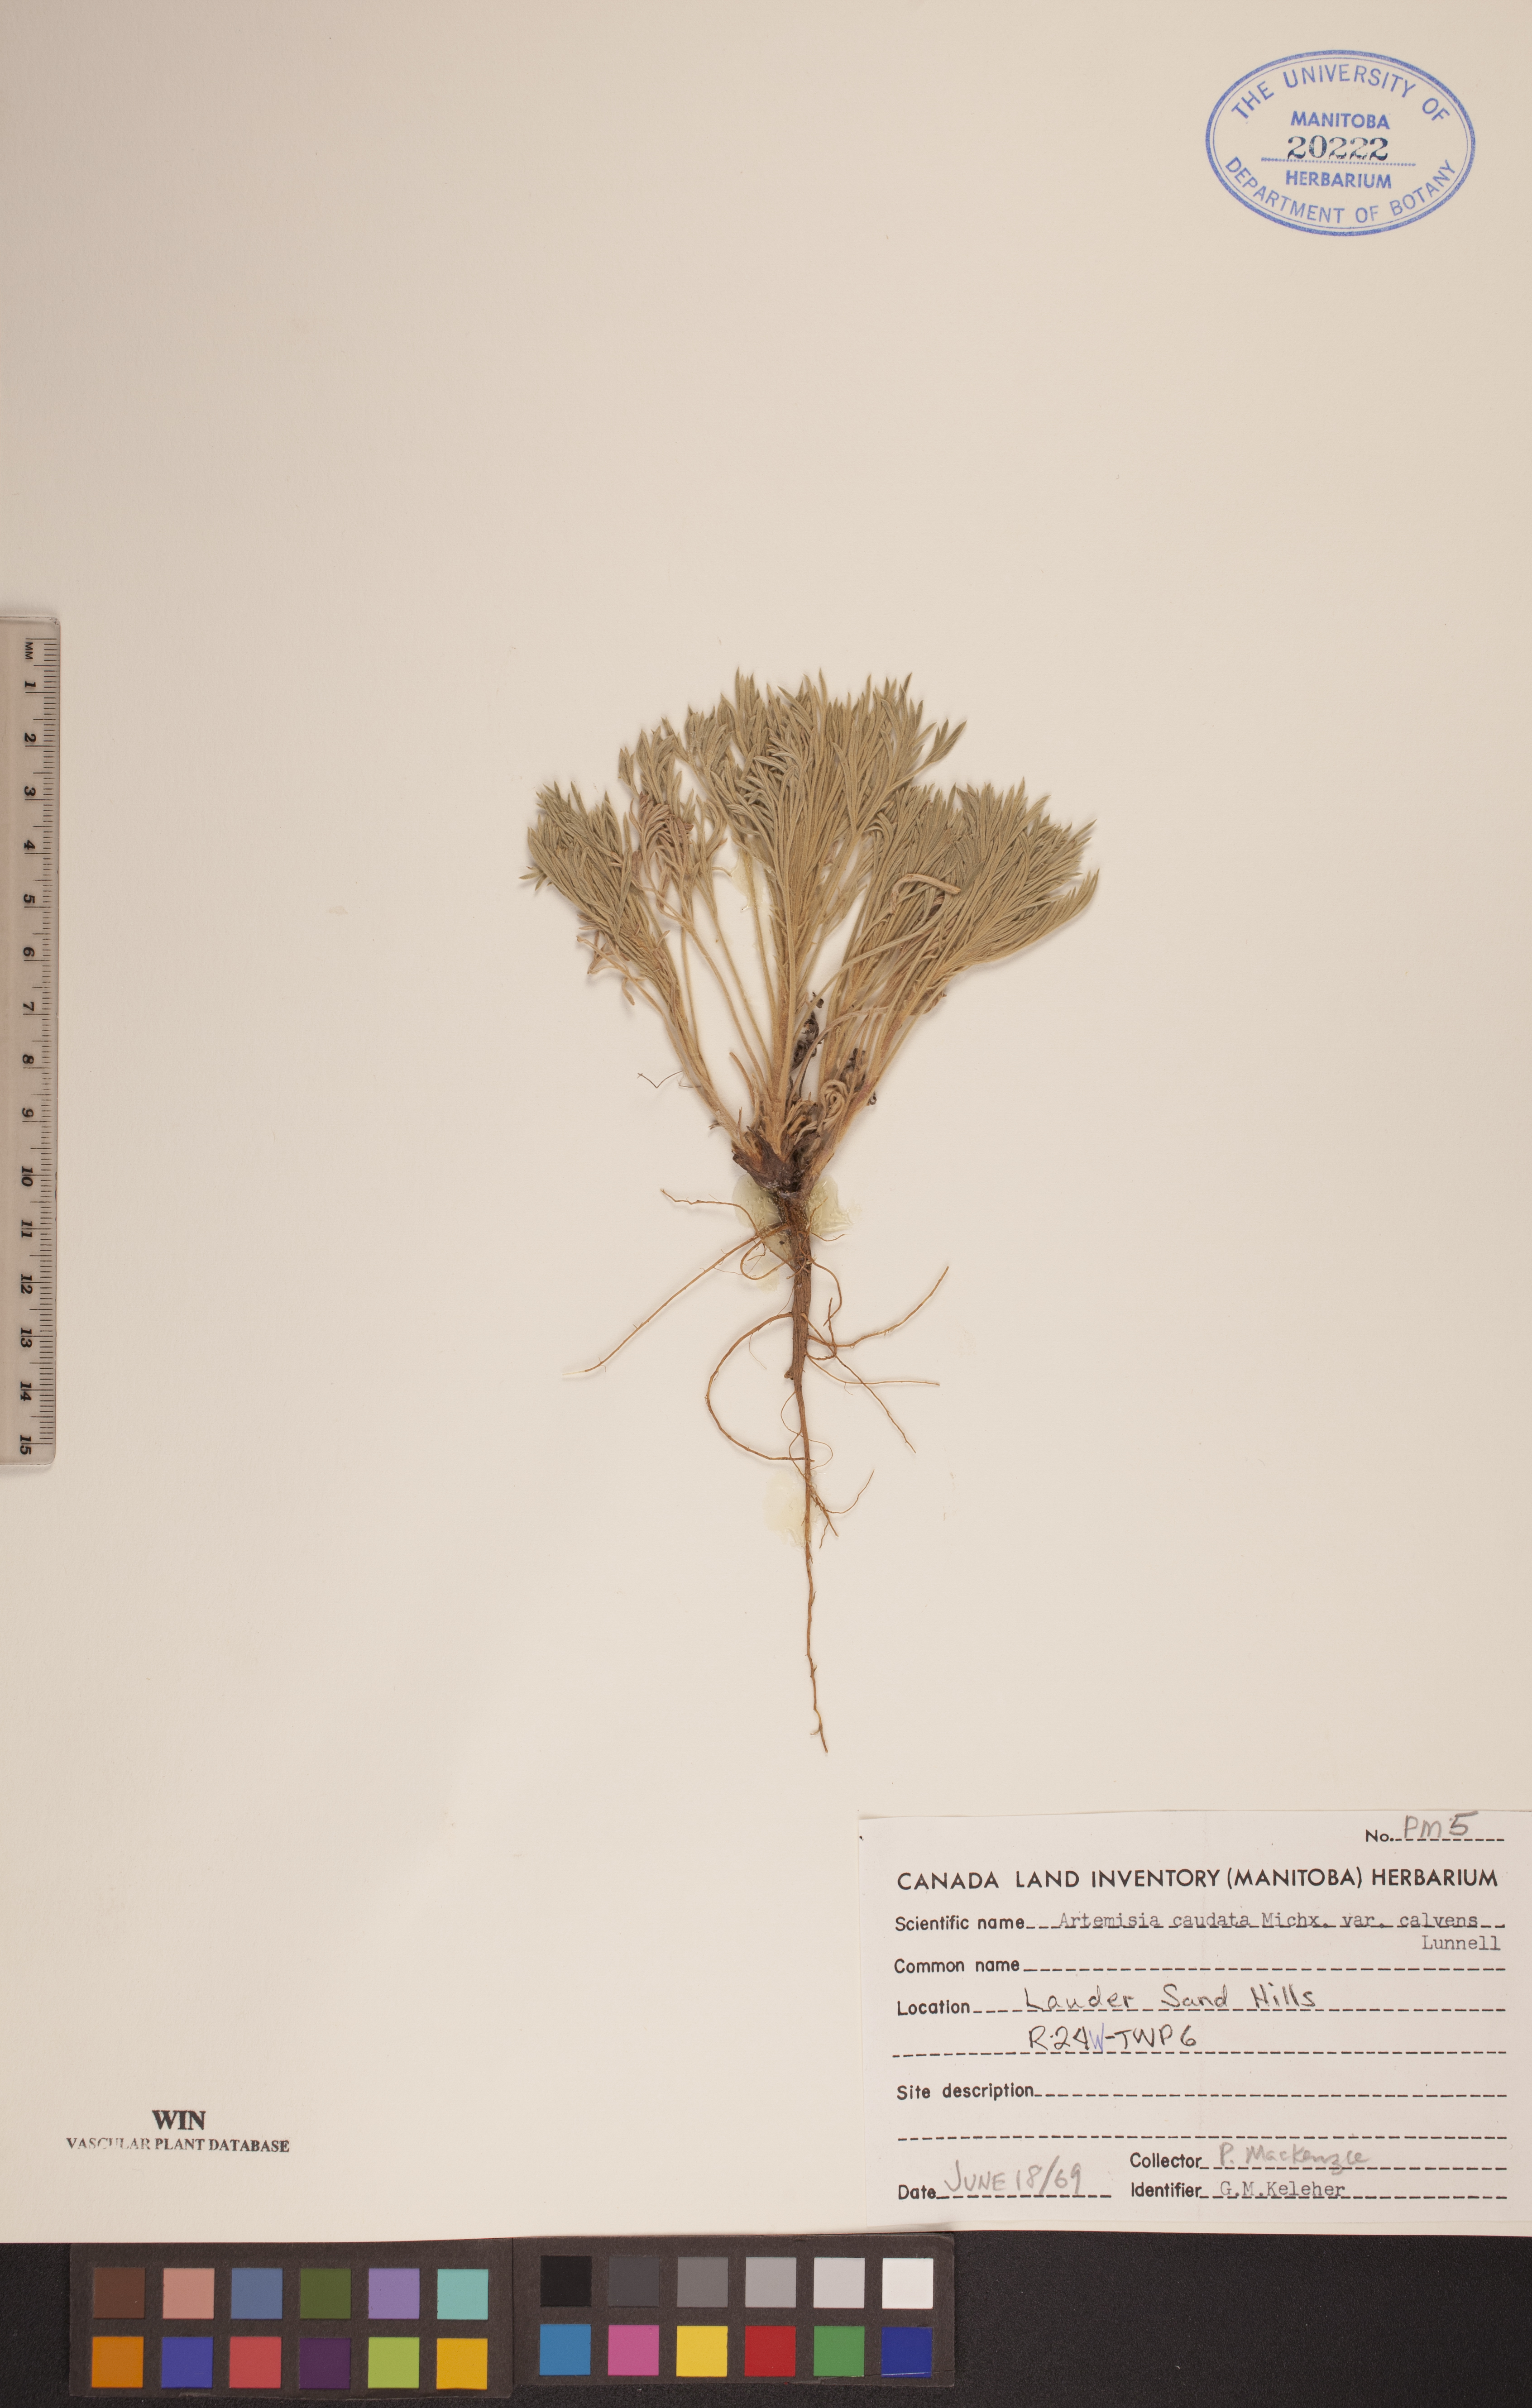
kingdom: Plantae
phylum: Tracheophyta
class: Magnoliopsida
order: Asterales
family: Asteraceae
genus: Artemisia
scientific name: Artemisia campestris
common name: Field wormwood
